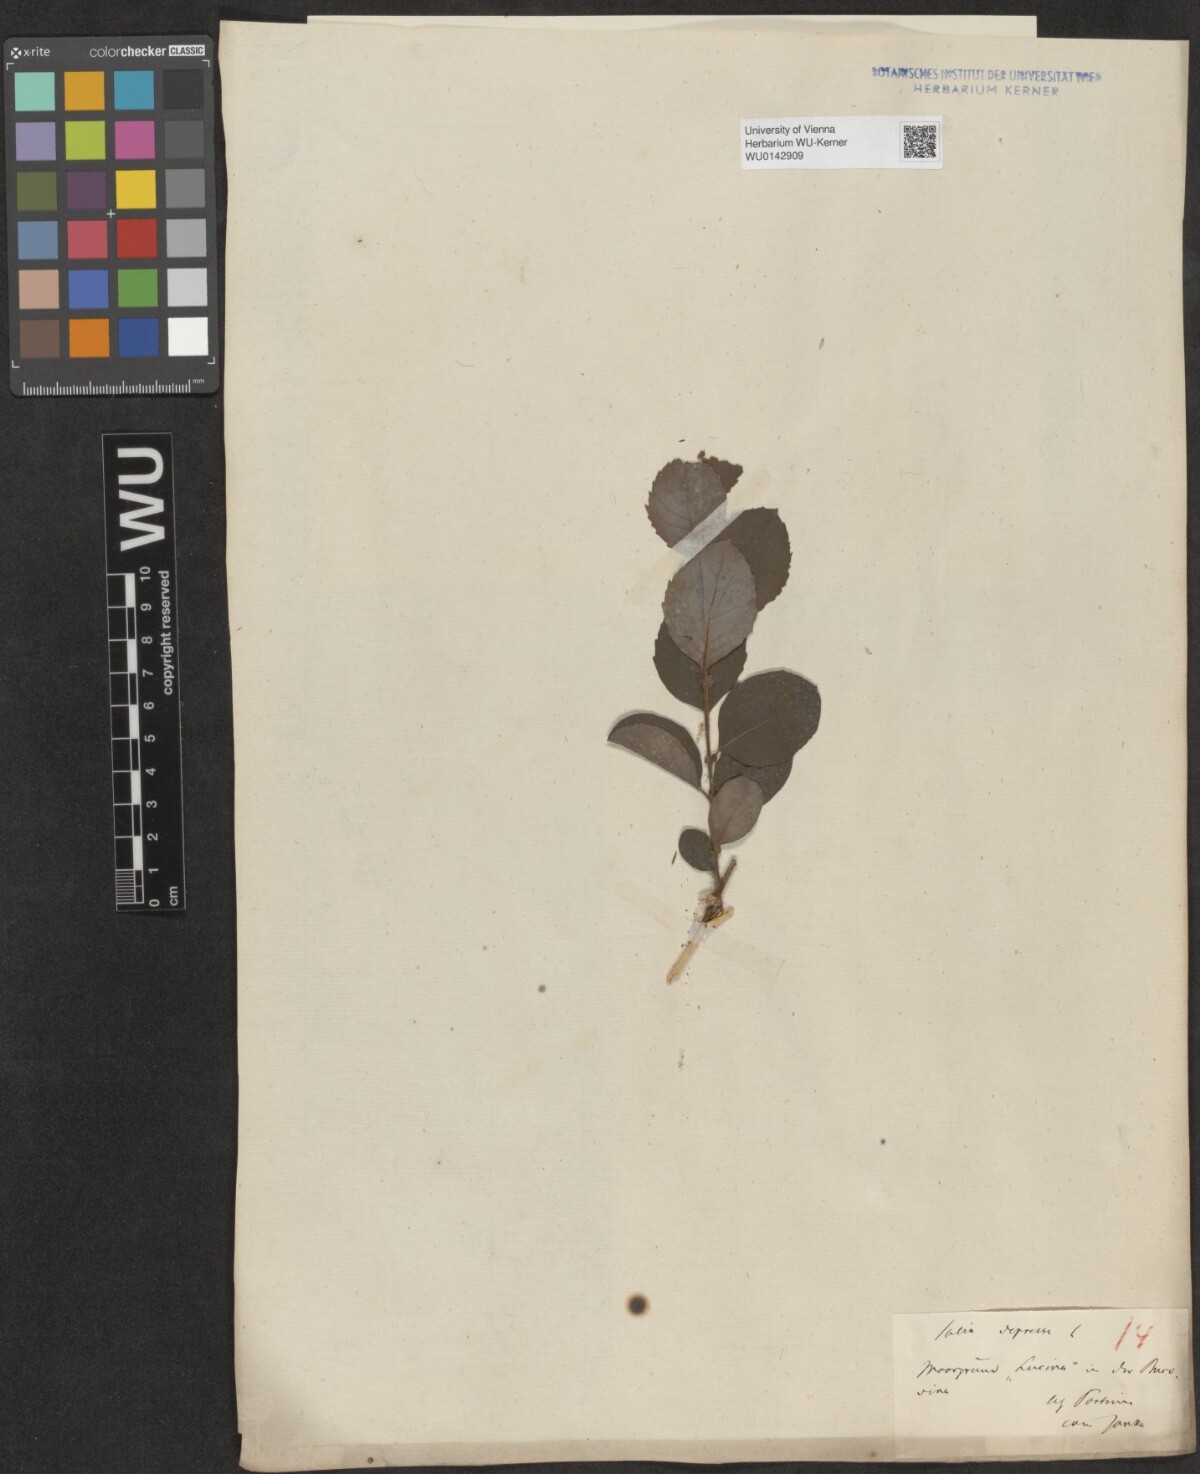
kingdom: Plantae
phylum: Tracheophyta
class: Magnoliopsida
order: Malpighiales
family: Salicaceae
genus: Salix
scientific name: Salix starkeana
